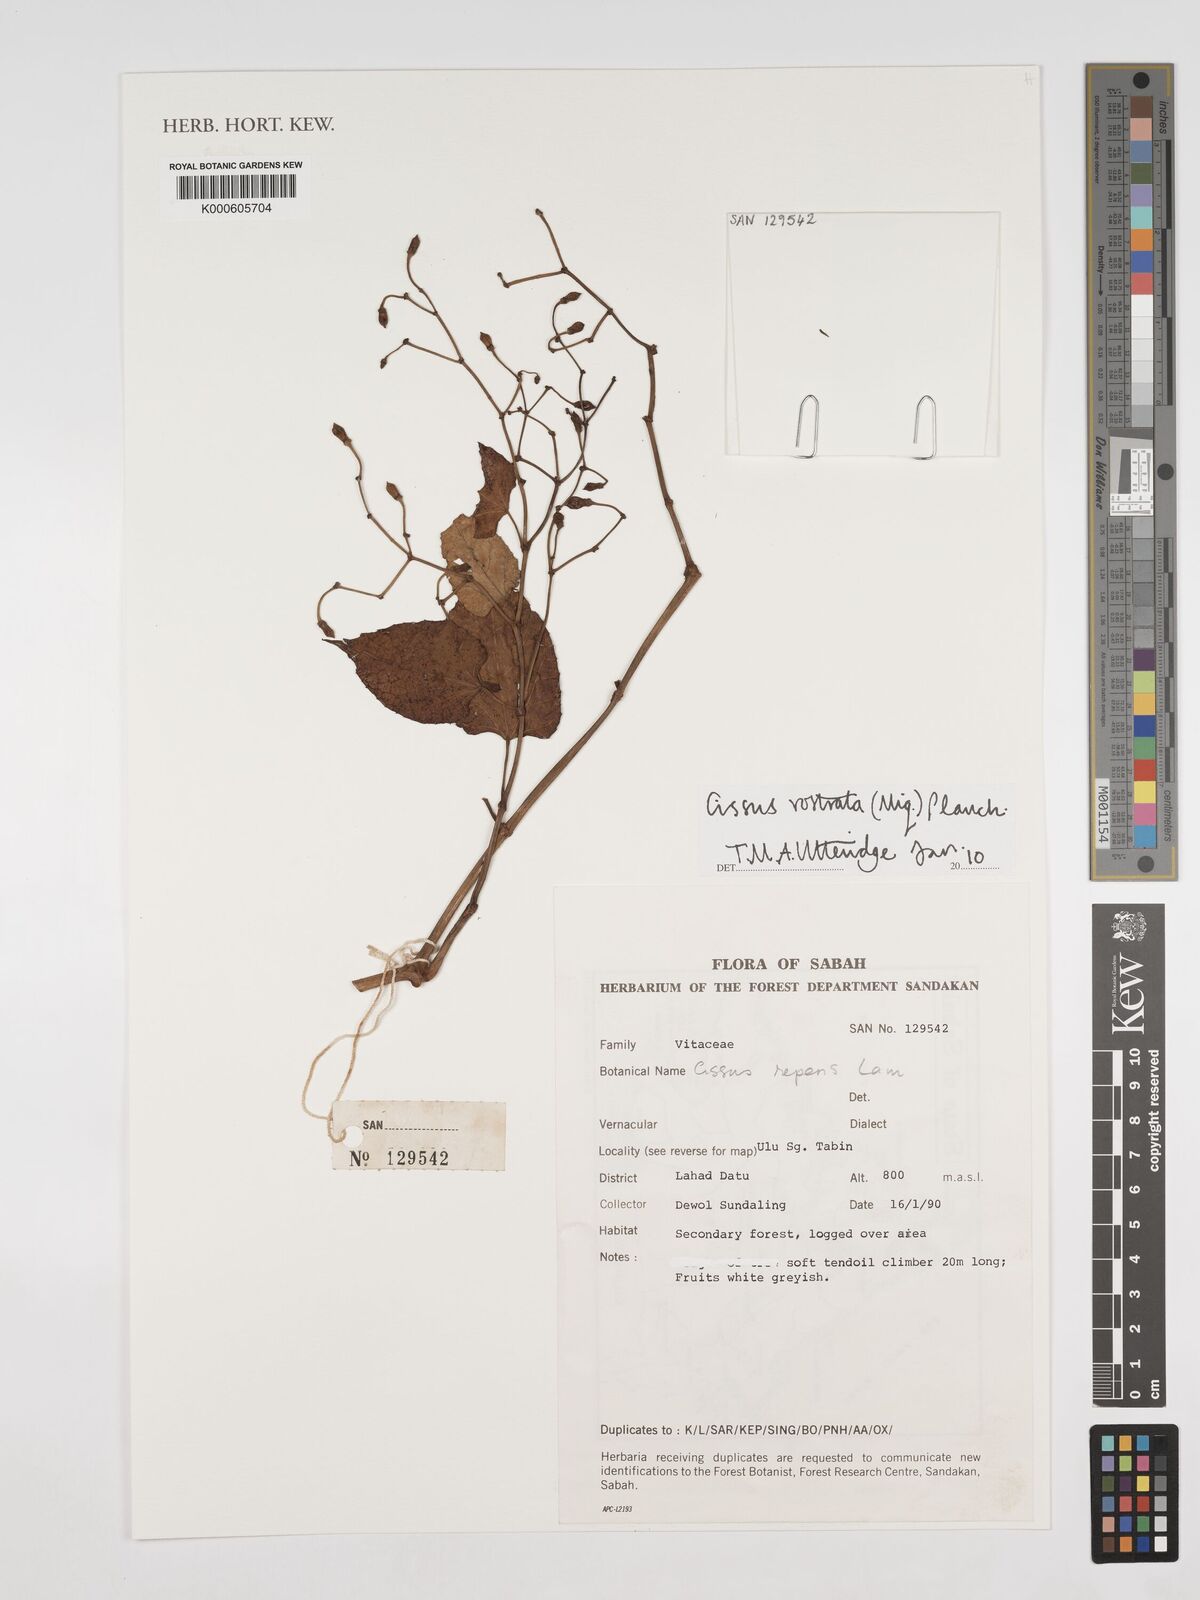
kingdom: Plantae
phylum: Tracheophyta
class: Magnoliopsida
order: Vitales
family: Vitaceae
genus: Cissus
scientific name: Cissus rostrata
